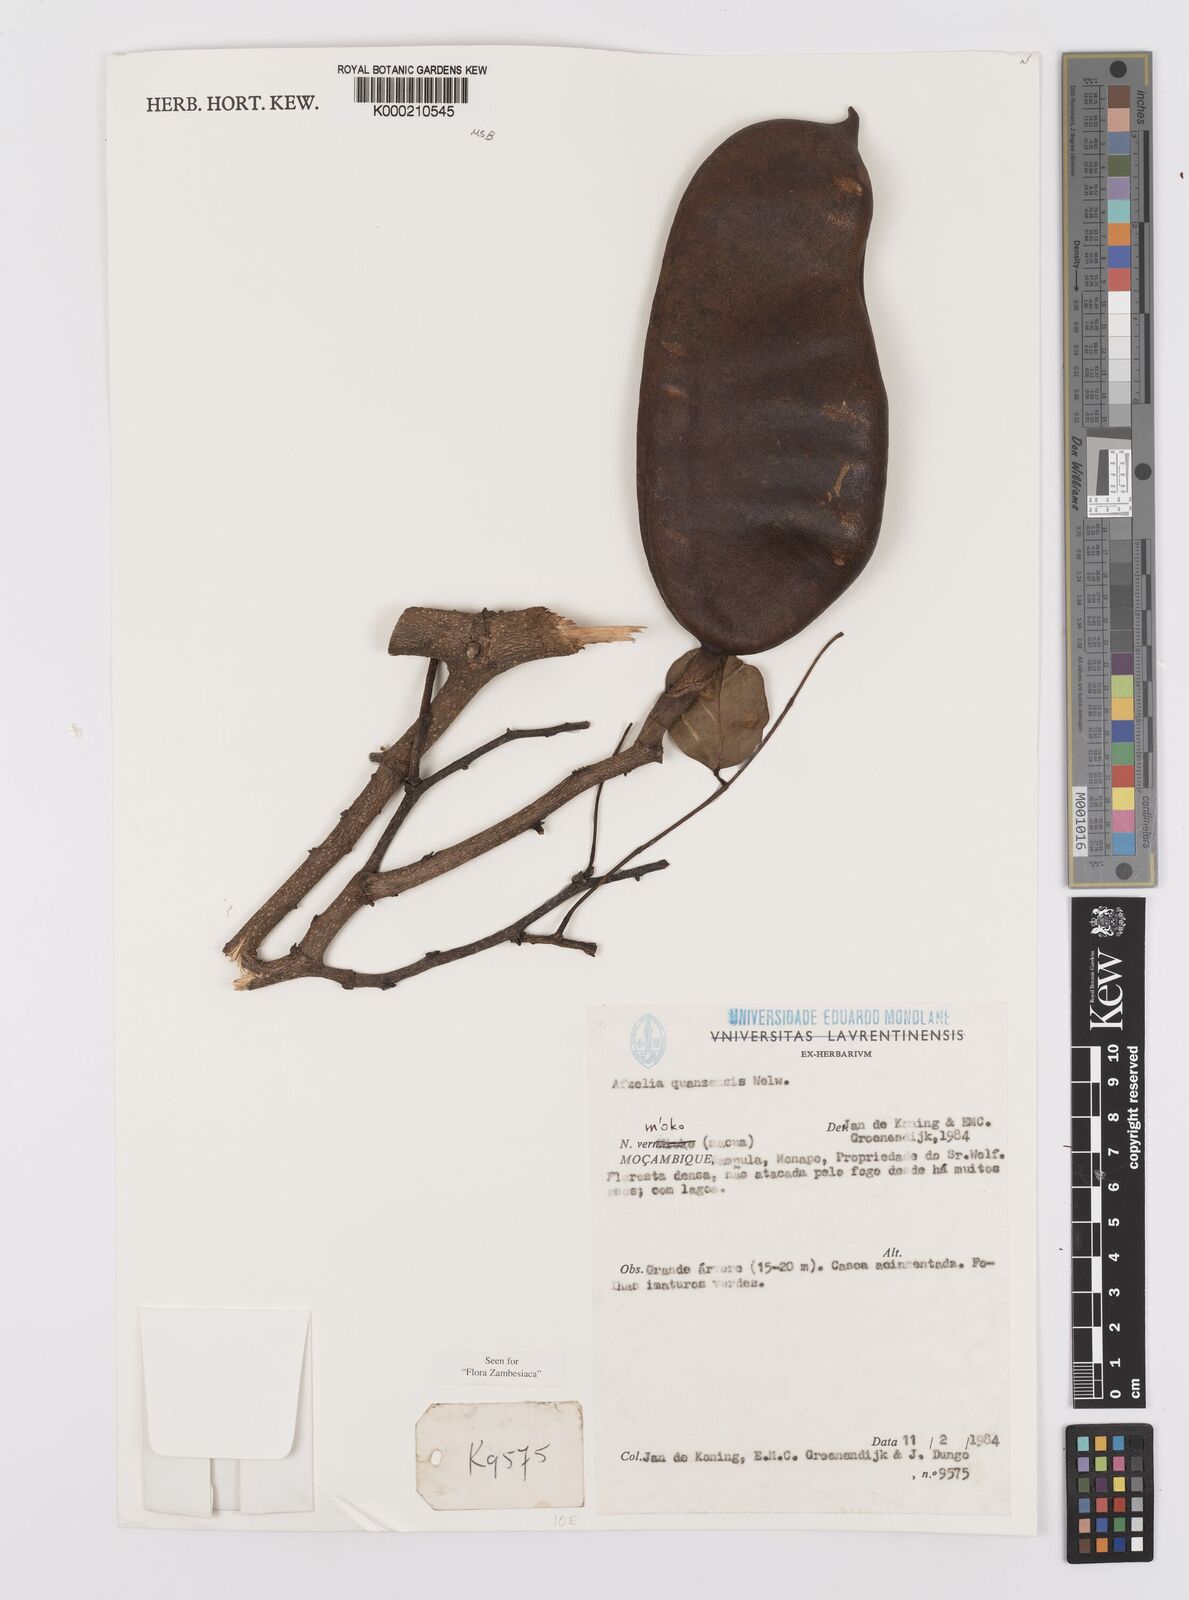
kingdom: Plantae
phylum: Tracheophyta
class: Magnoliopsida
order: Fabales
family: Fabaceae
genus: Afzelia
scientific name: Afzelia quanzensis
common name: Pod mahogany
